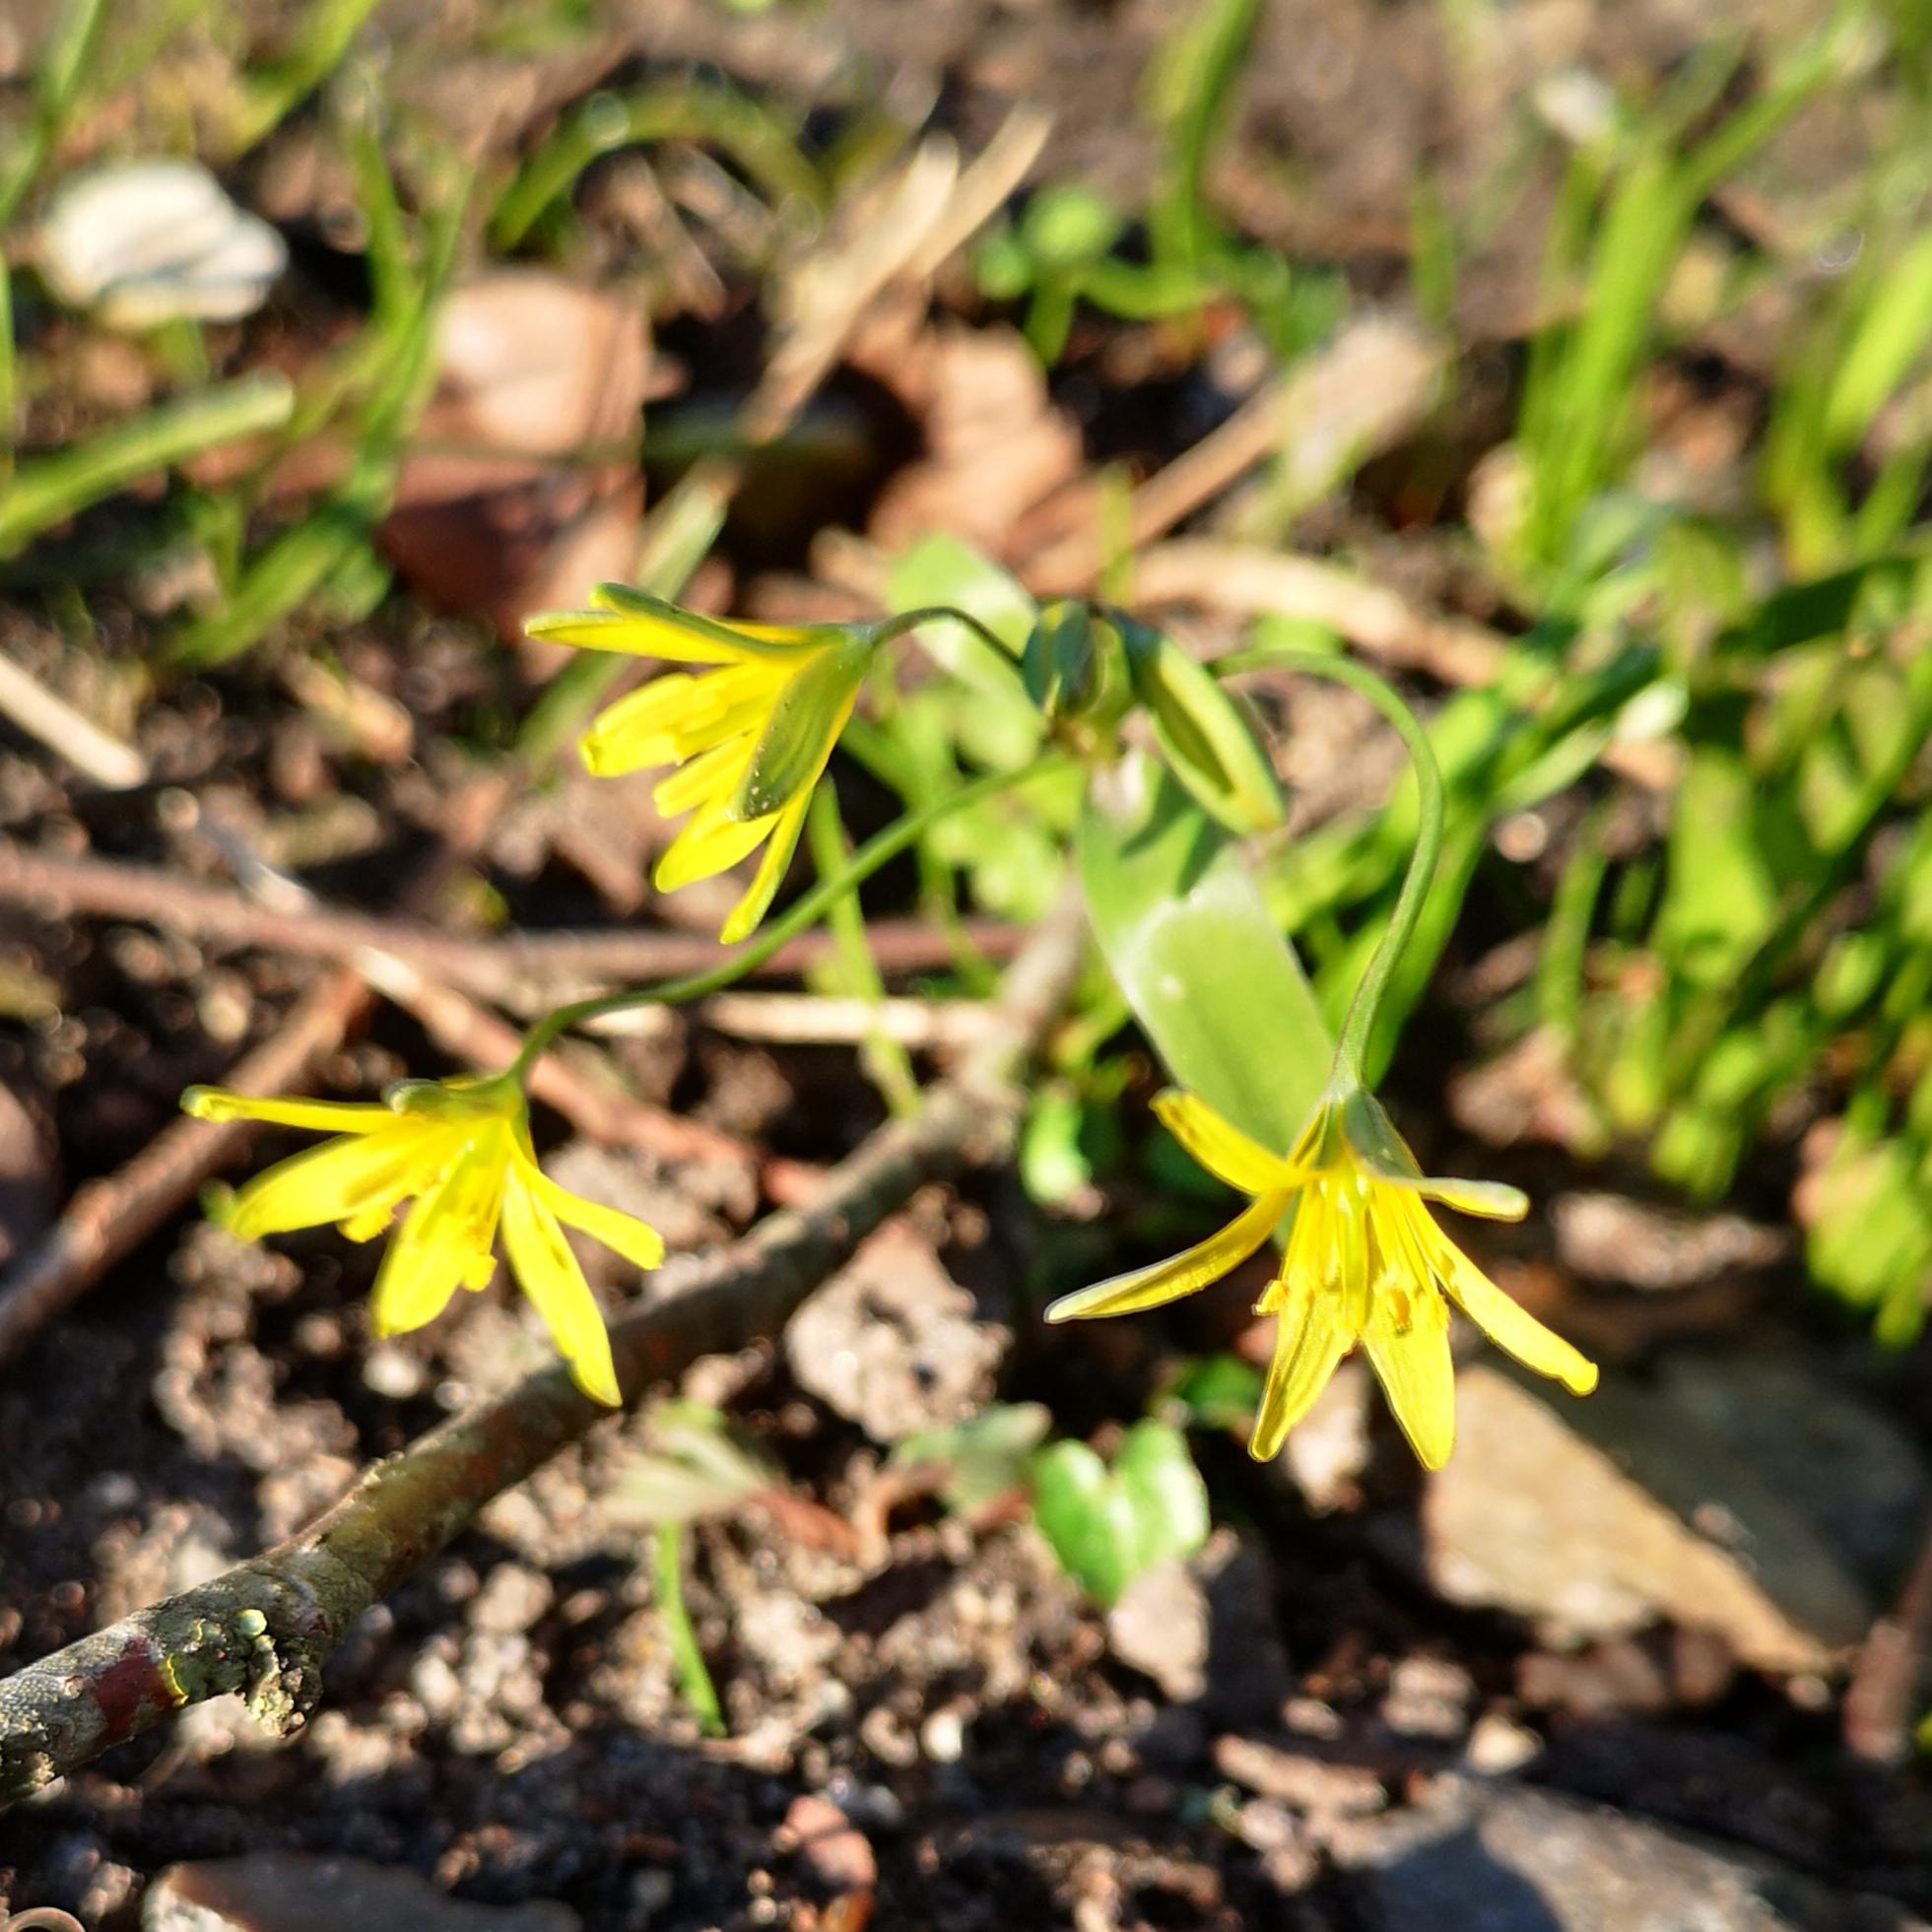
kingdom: Plantae
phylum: Tracheophyta
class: Liliopsida
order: Liliales
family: Liliaceae
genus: Gagea
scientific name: Gagea lutea
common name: Almindelig guldstjerne
